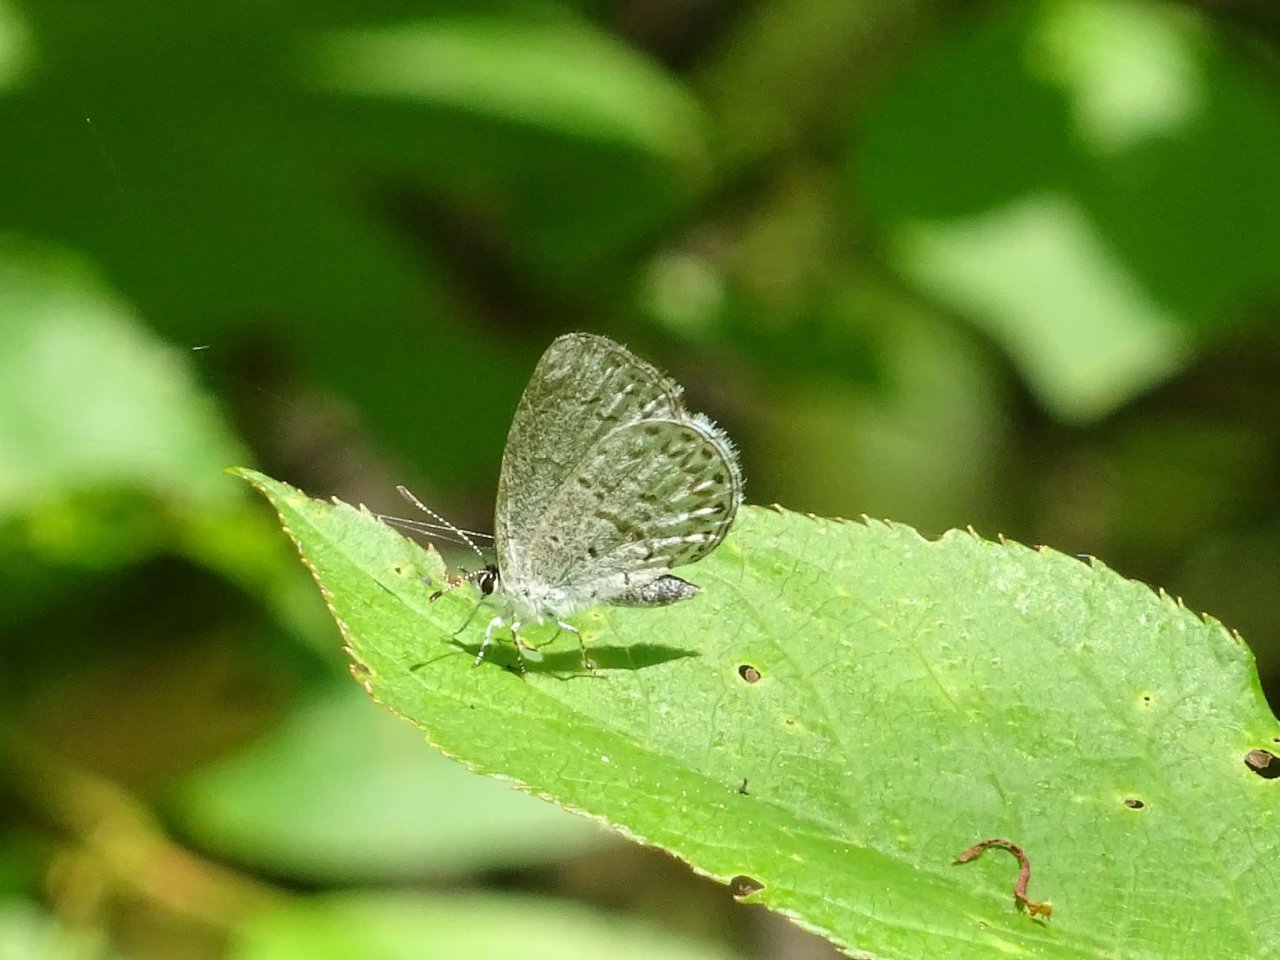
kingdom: Animalia
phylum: Arthropoda
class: Insecta
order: Lepidoptera
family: Lycaenidae
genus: Celastrina
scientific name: Celastrina lucia
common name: Northern Spring Azure
